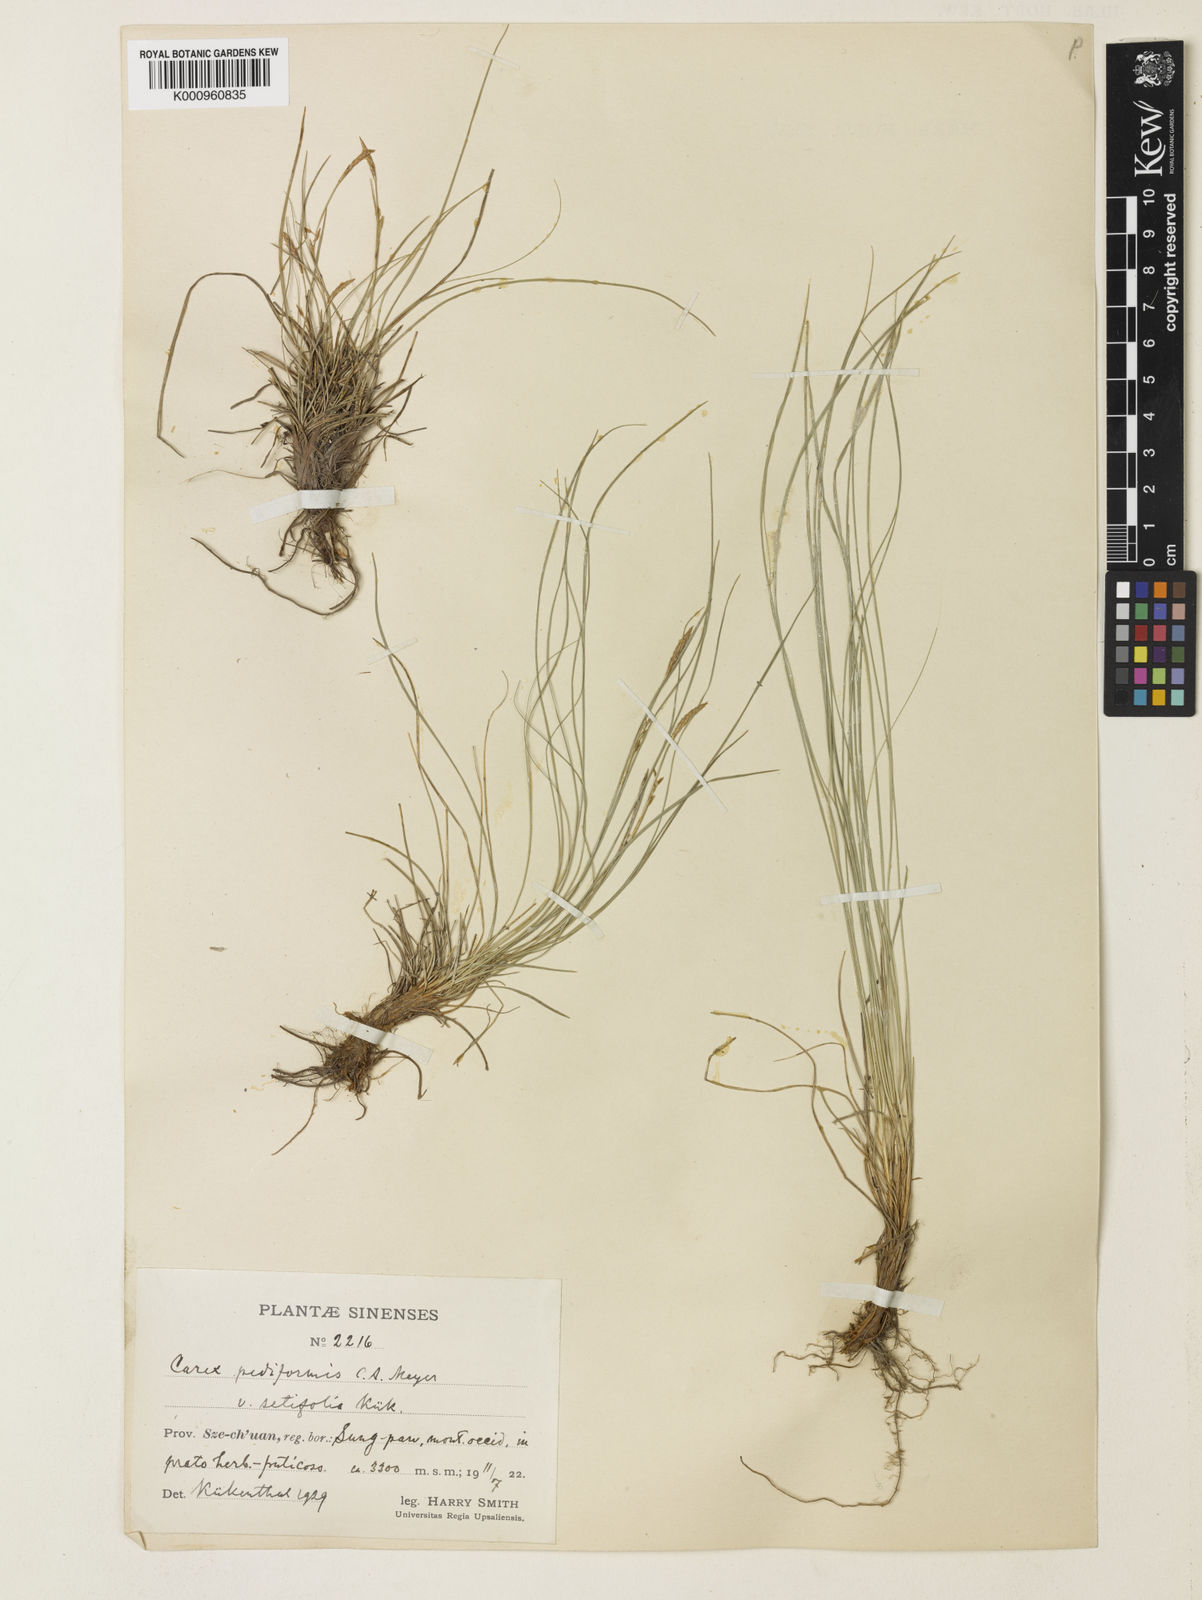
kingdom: Plantae
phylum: Tracheophyta
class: Liliopsida
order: Poales
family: Cyperaceae
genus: Carex
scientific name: Carex pediformis
